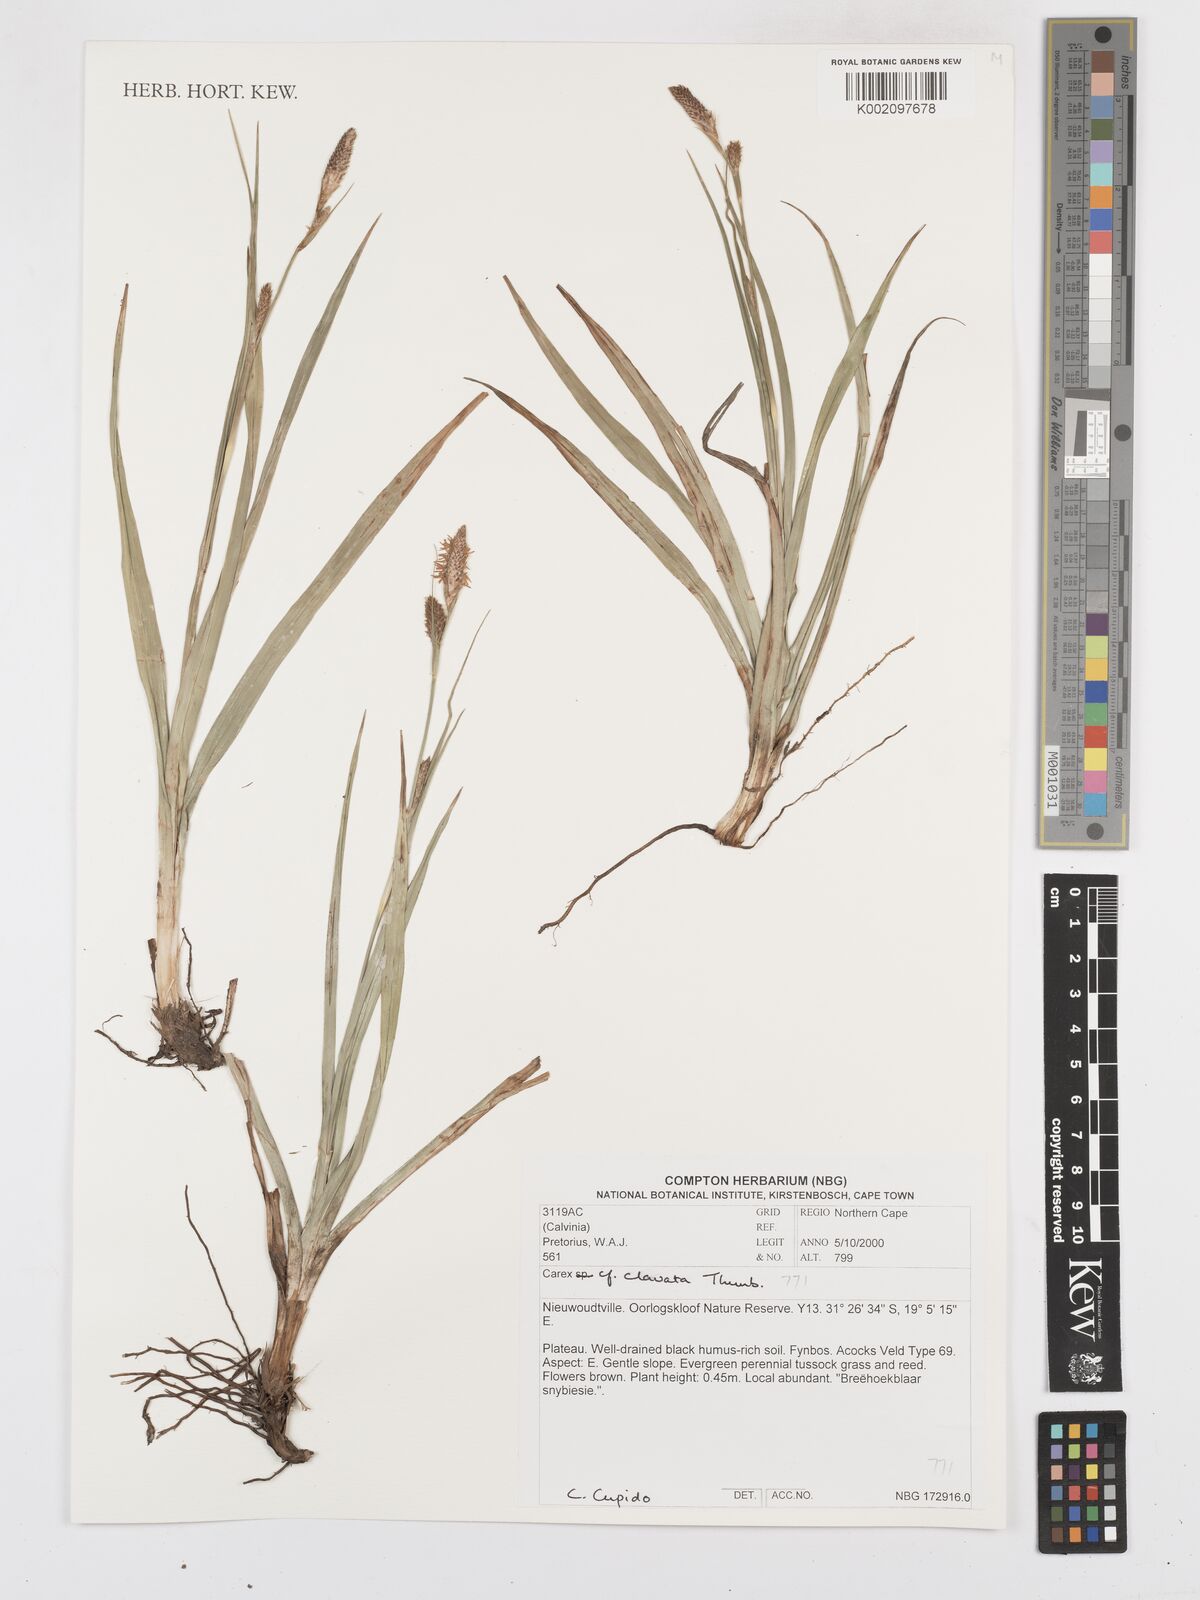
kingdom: Plantae
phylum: Tracheophyta
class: Liliopsida
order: Poales
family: Cyperaceae
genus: Carex
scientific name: Carex clavata
